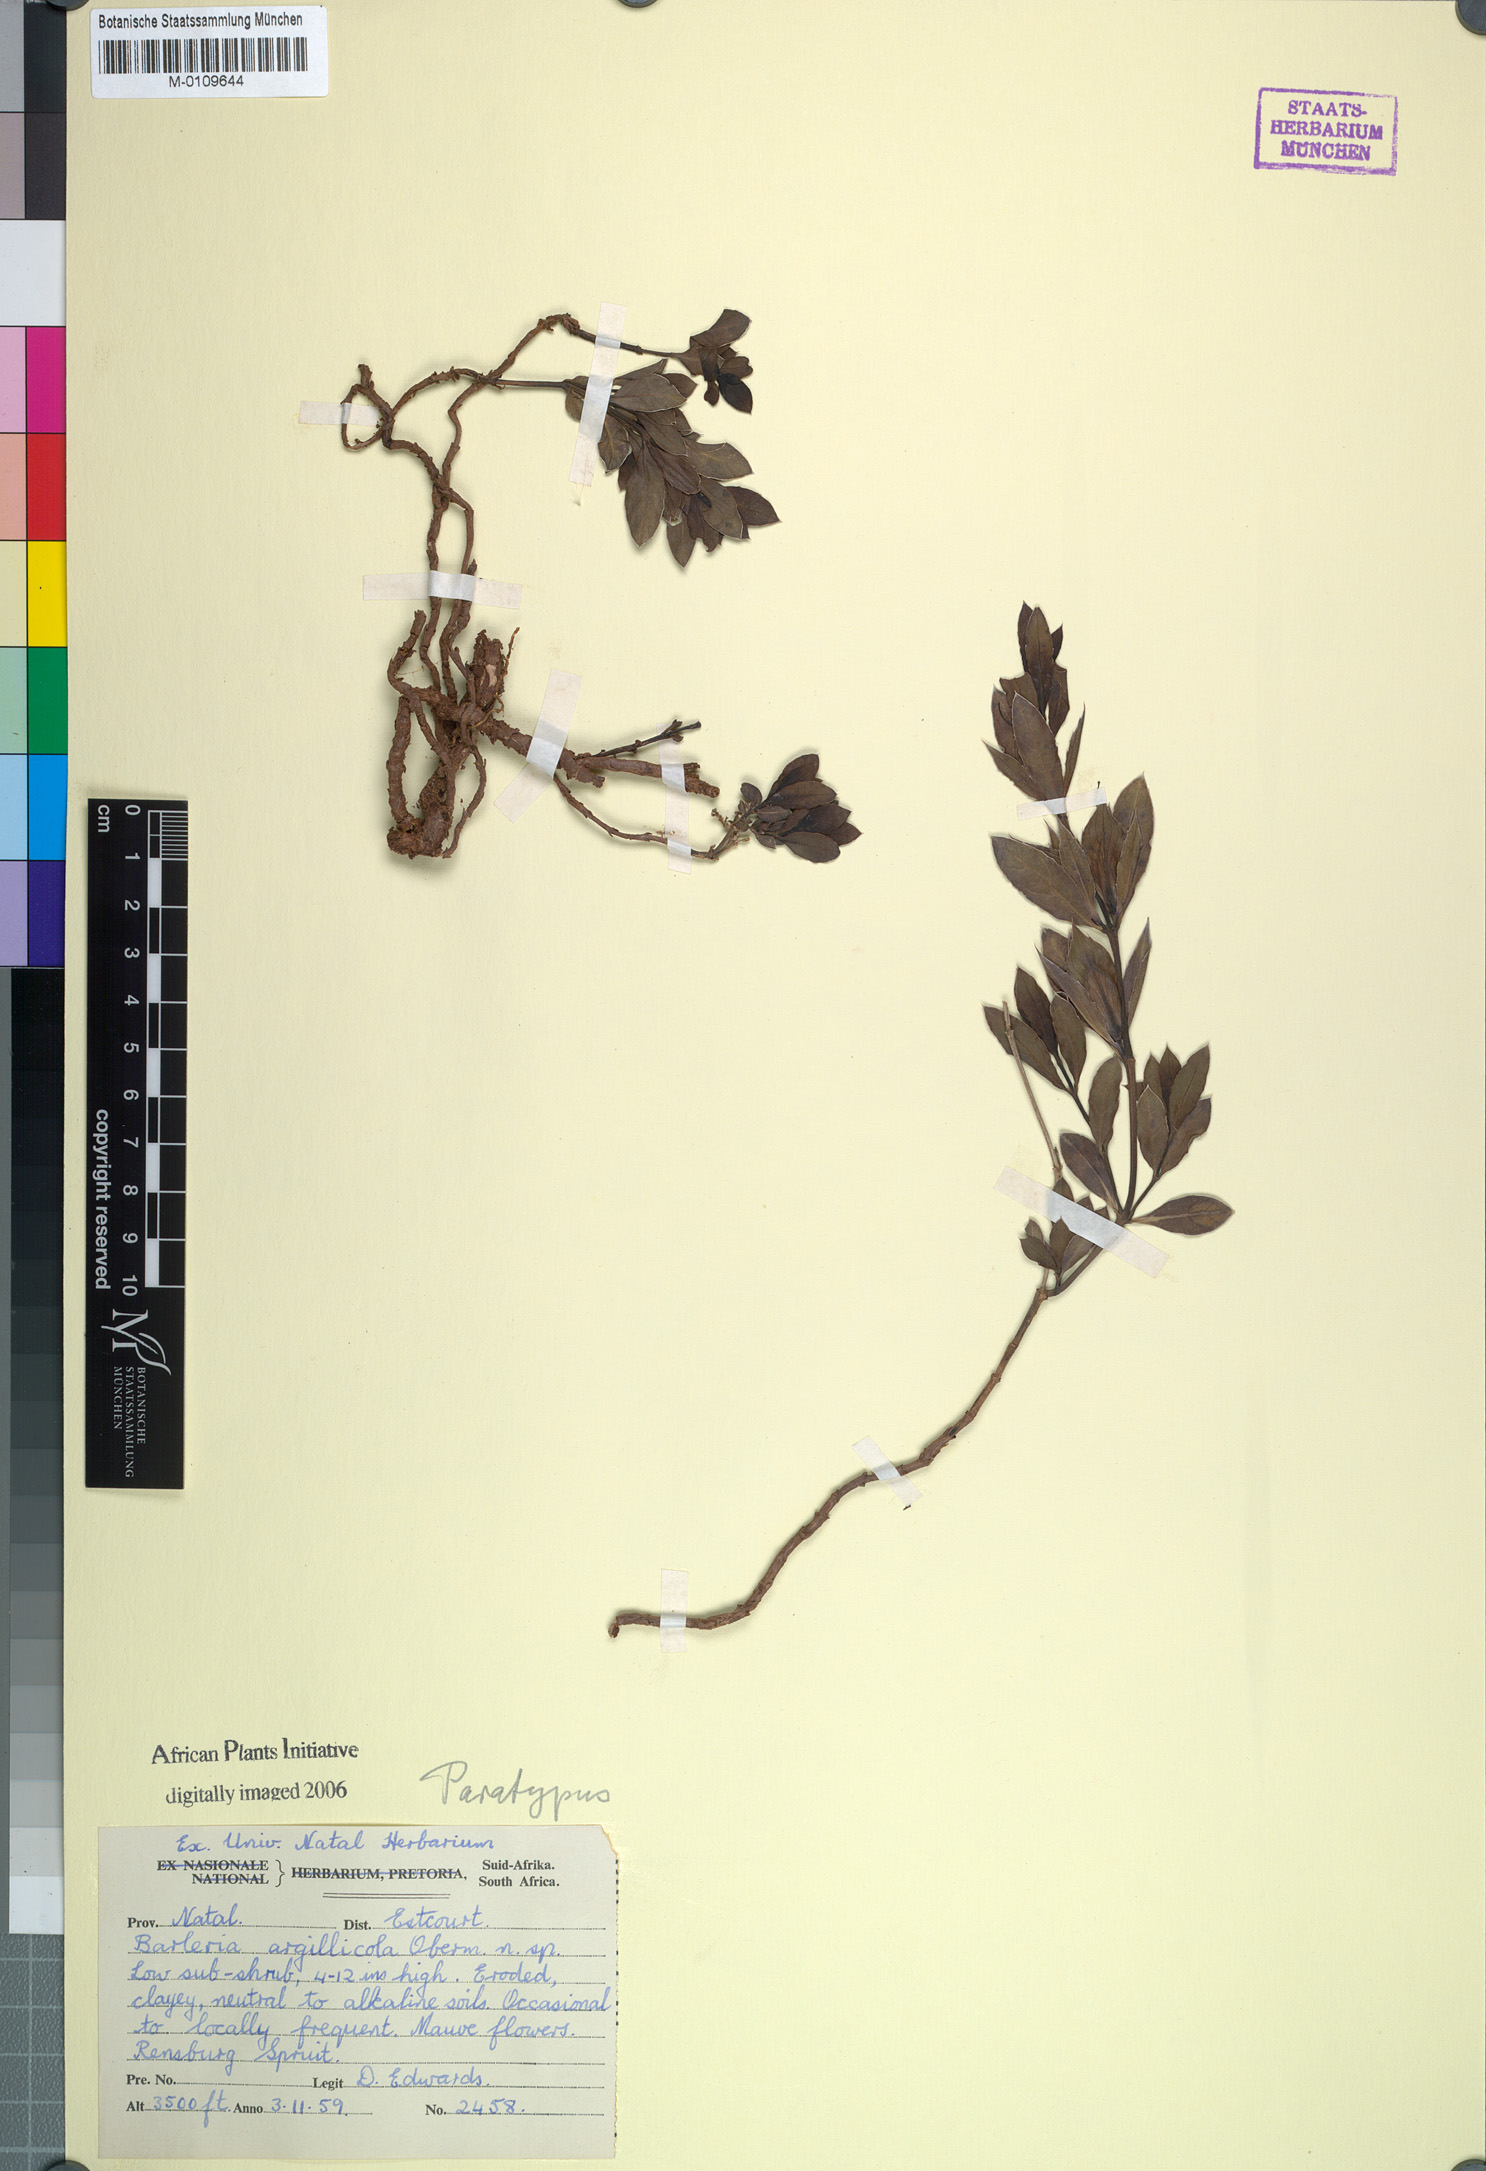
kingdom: Plantae
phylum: Tracheophyta
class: Magnoliopsida
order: Lamiales
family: Acanthaceae
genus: Barleria
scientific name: Barleria argillicola
